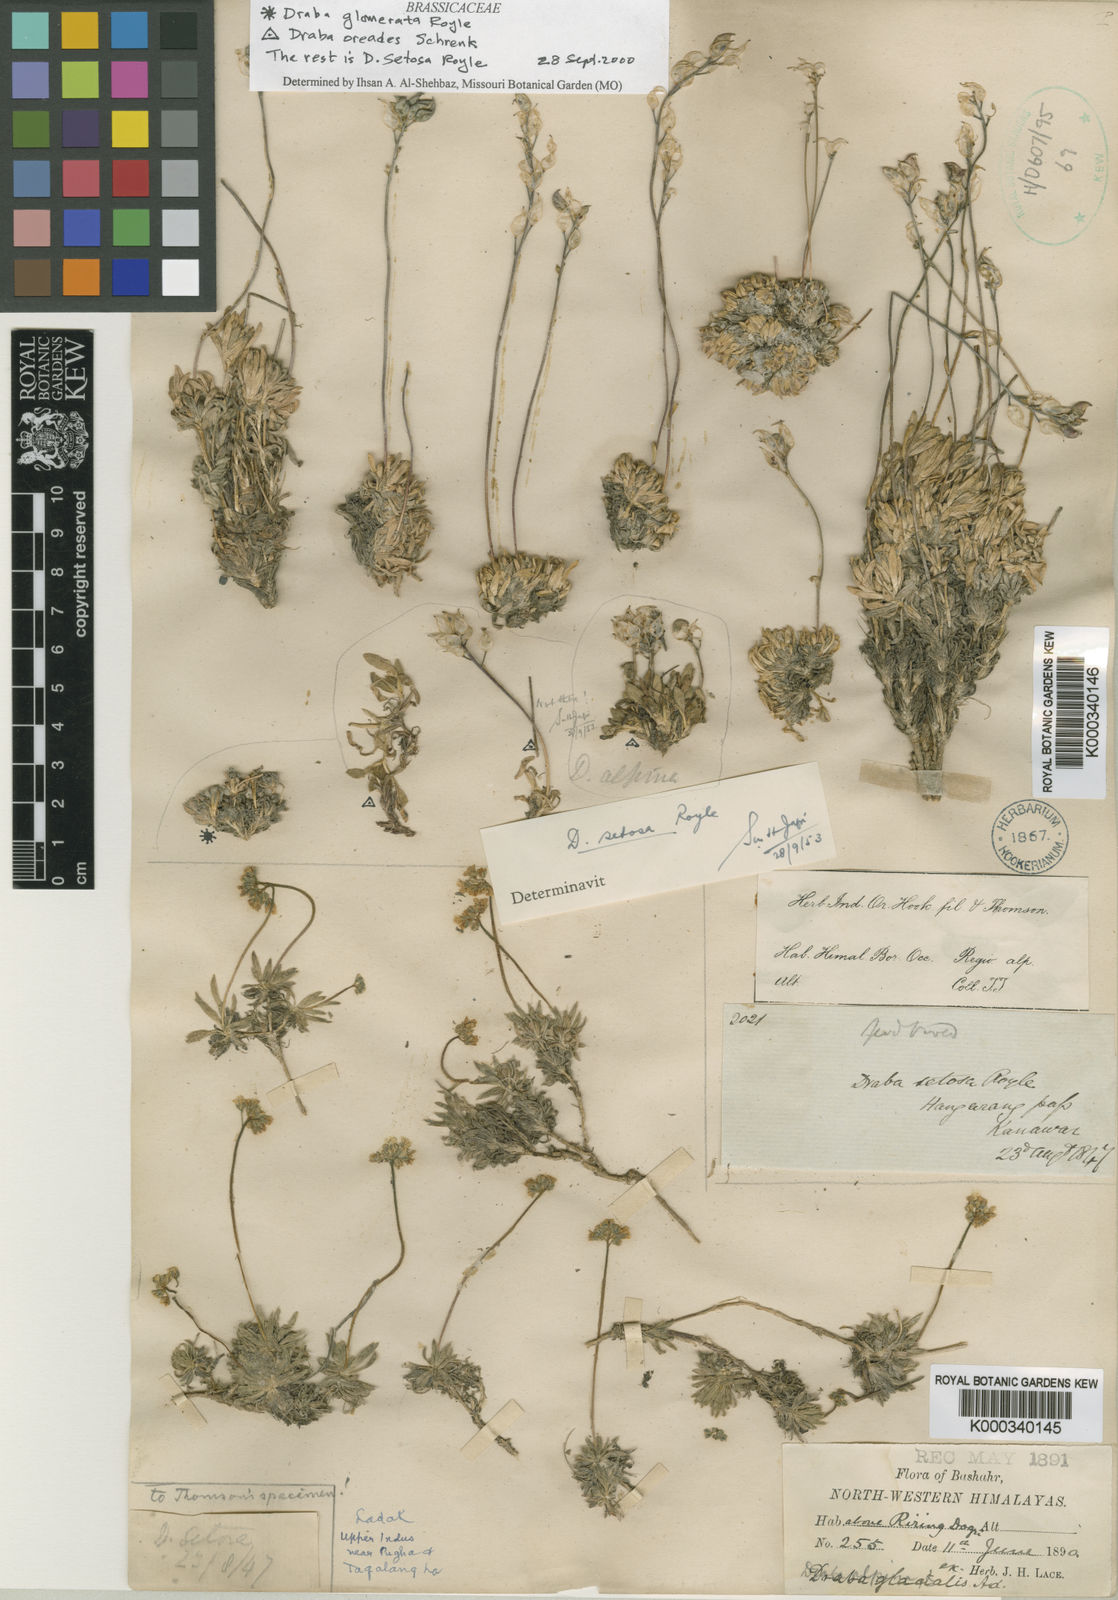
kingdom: Plantae
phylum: Tracheophyta
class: Magnoliopsida
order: Brassicales
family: Brassicaceae
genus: Draba
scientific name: Draba setosa
